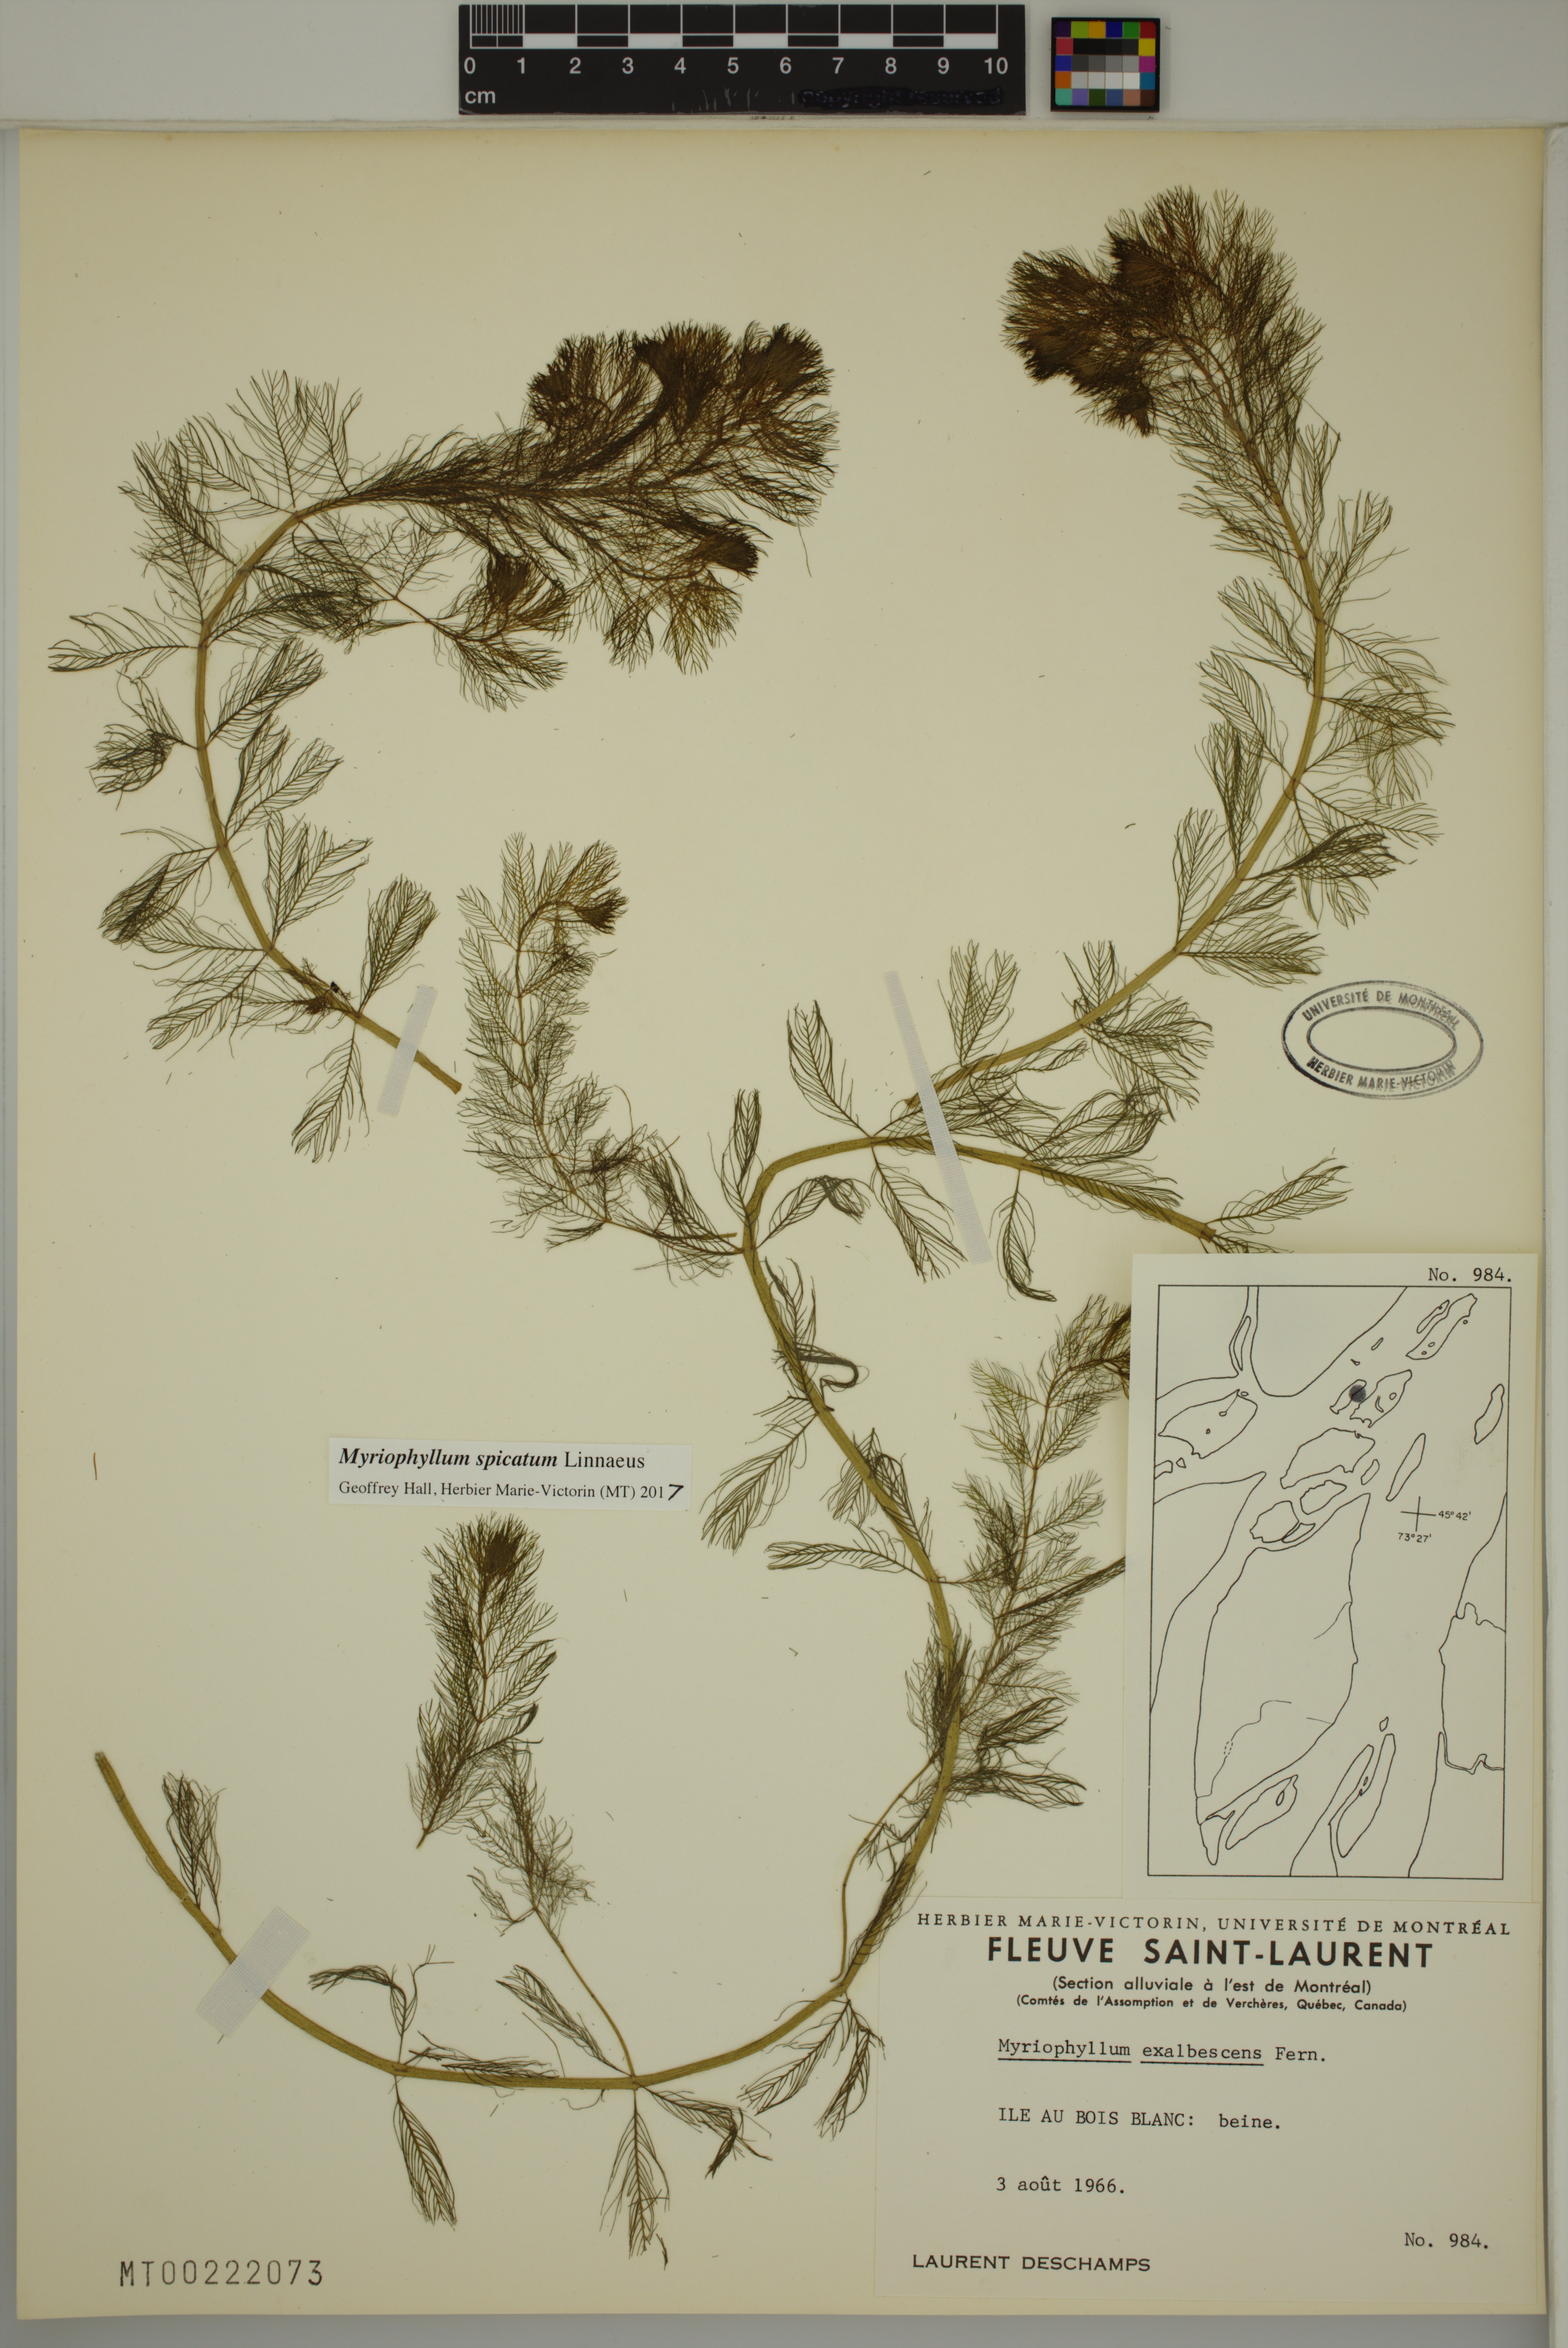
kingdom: Plantae
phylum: Tracheophyta
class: Magnoliopsida
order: Saxifragales
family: Haloragaceae
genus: Myriophyllum
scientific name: Myriophyllum spicatum
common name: Spiked water-milfoil
